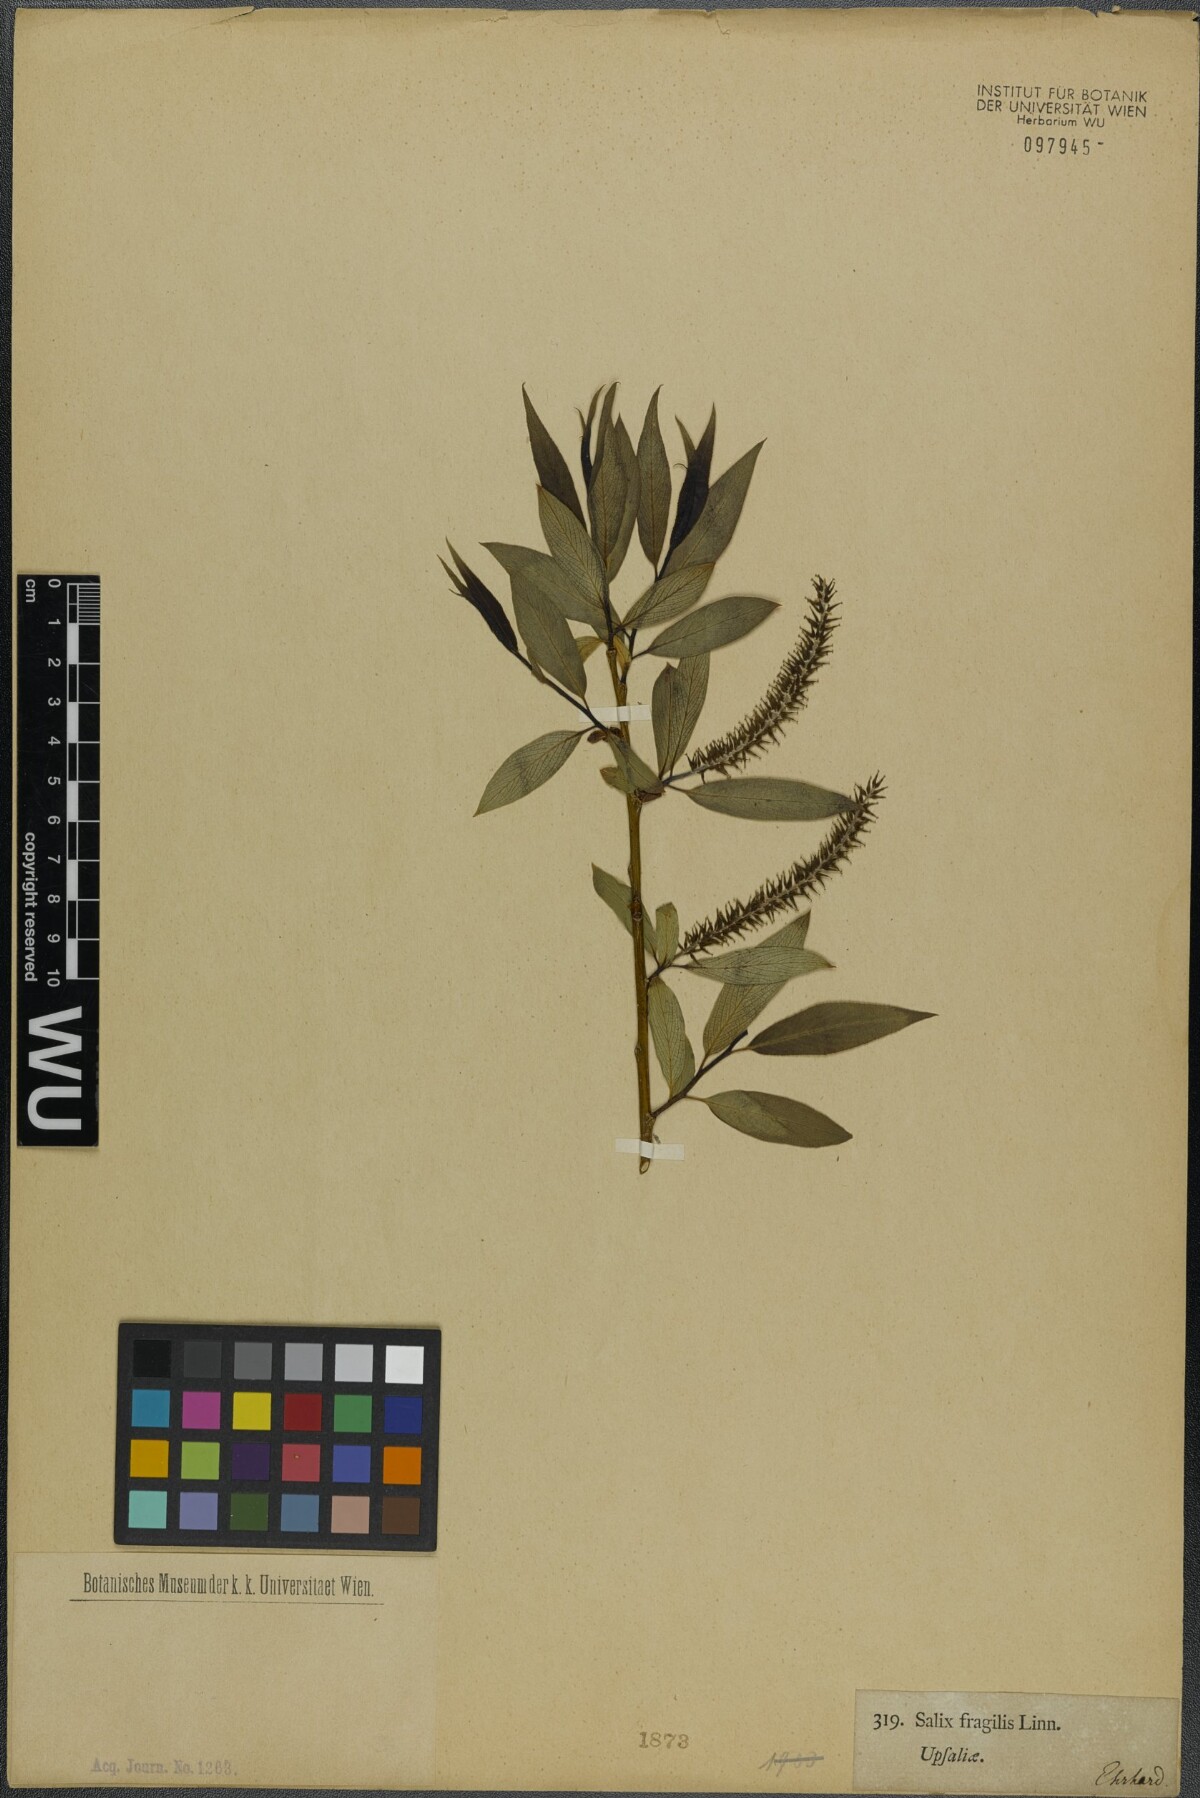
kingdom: Plantae
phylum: Tracheophyta
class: Magnoliopsida
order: Malpighiales
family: Salicaceae
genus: Salix
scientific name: Salix fragilis
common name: Crack willow
